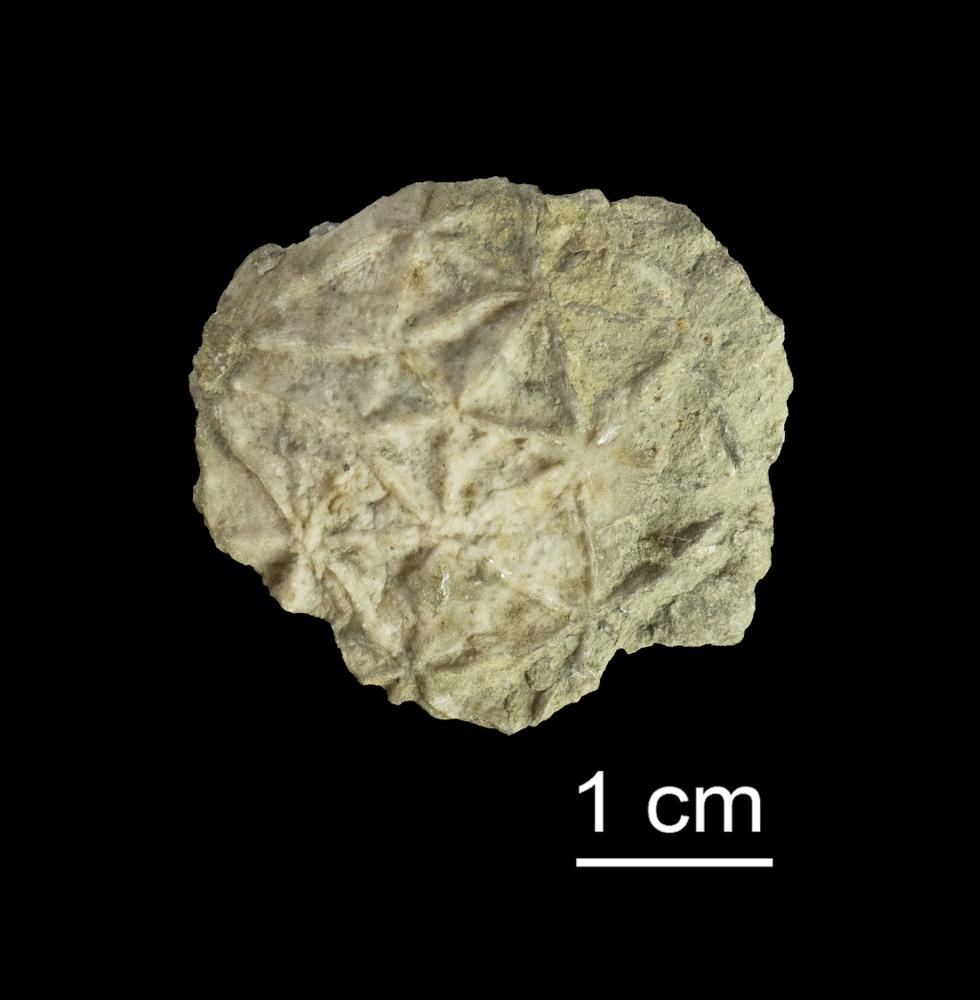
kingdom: Animalia
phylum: Echinodermata
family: Caryocystitidae
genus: Heliocrinites
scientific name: Heliocrinites Echinosphaerites balticus
